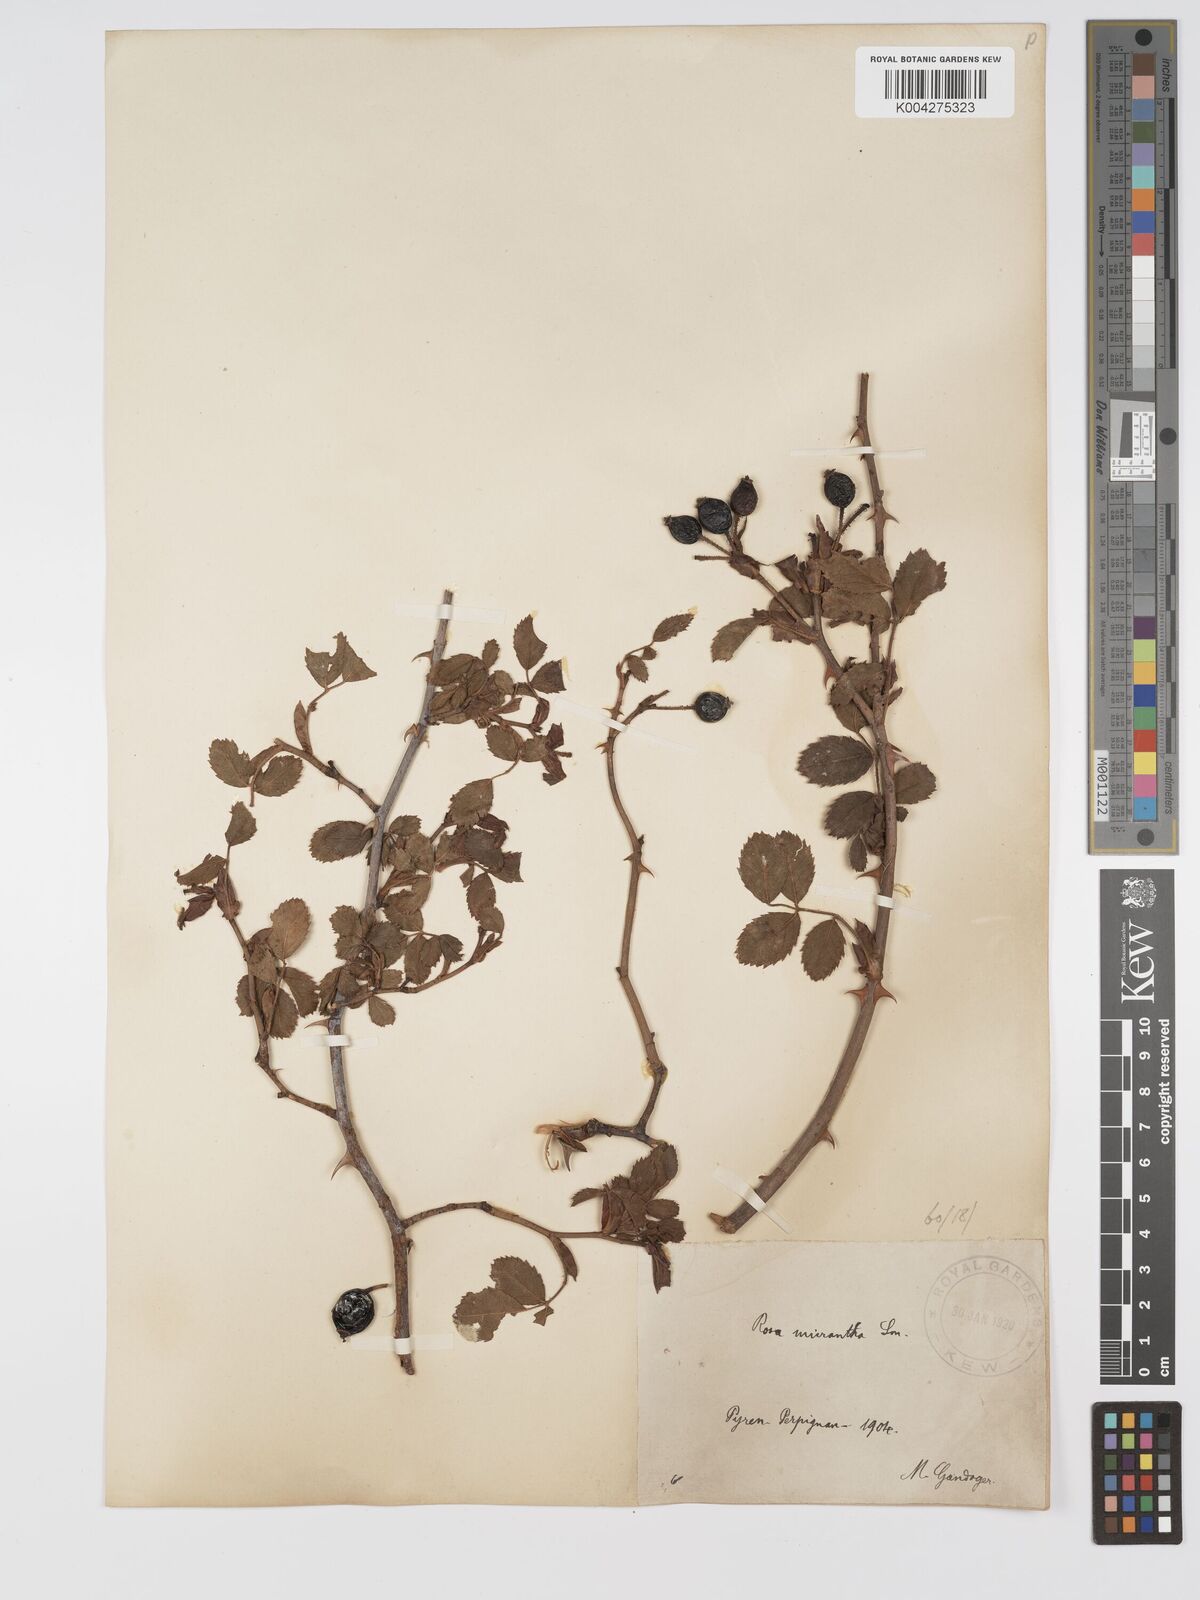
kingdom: Plantae
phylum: Tracheophyta
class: Magnoliopsida
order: Rosales
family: Rosaceae
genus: Rosa
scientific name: Rosa
